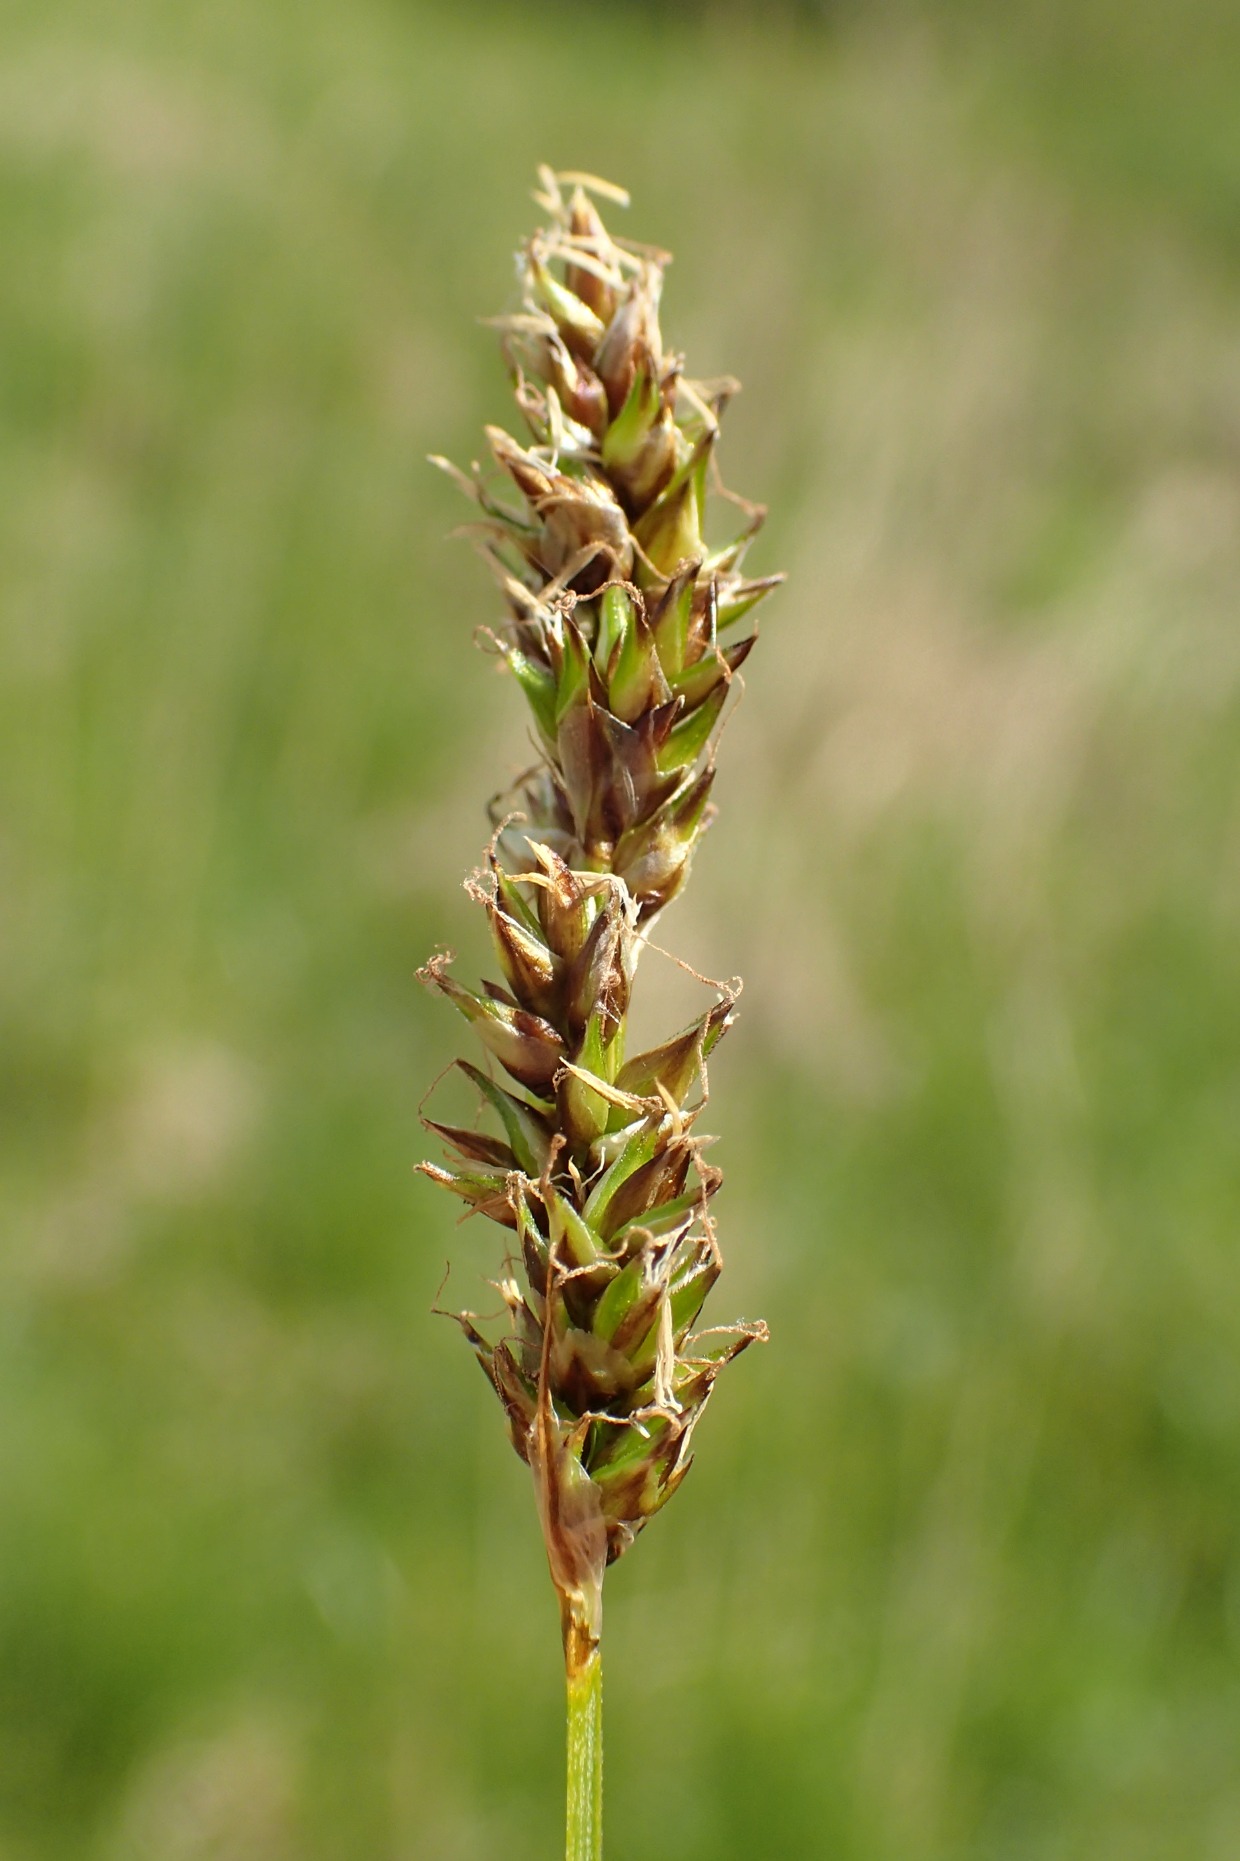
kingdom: Plantae
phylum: Tracheophyta
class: Liliopsida
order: Poales
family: Cyperaceae
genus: Carex
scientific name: Carex diandra
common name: Trindstænglet star
